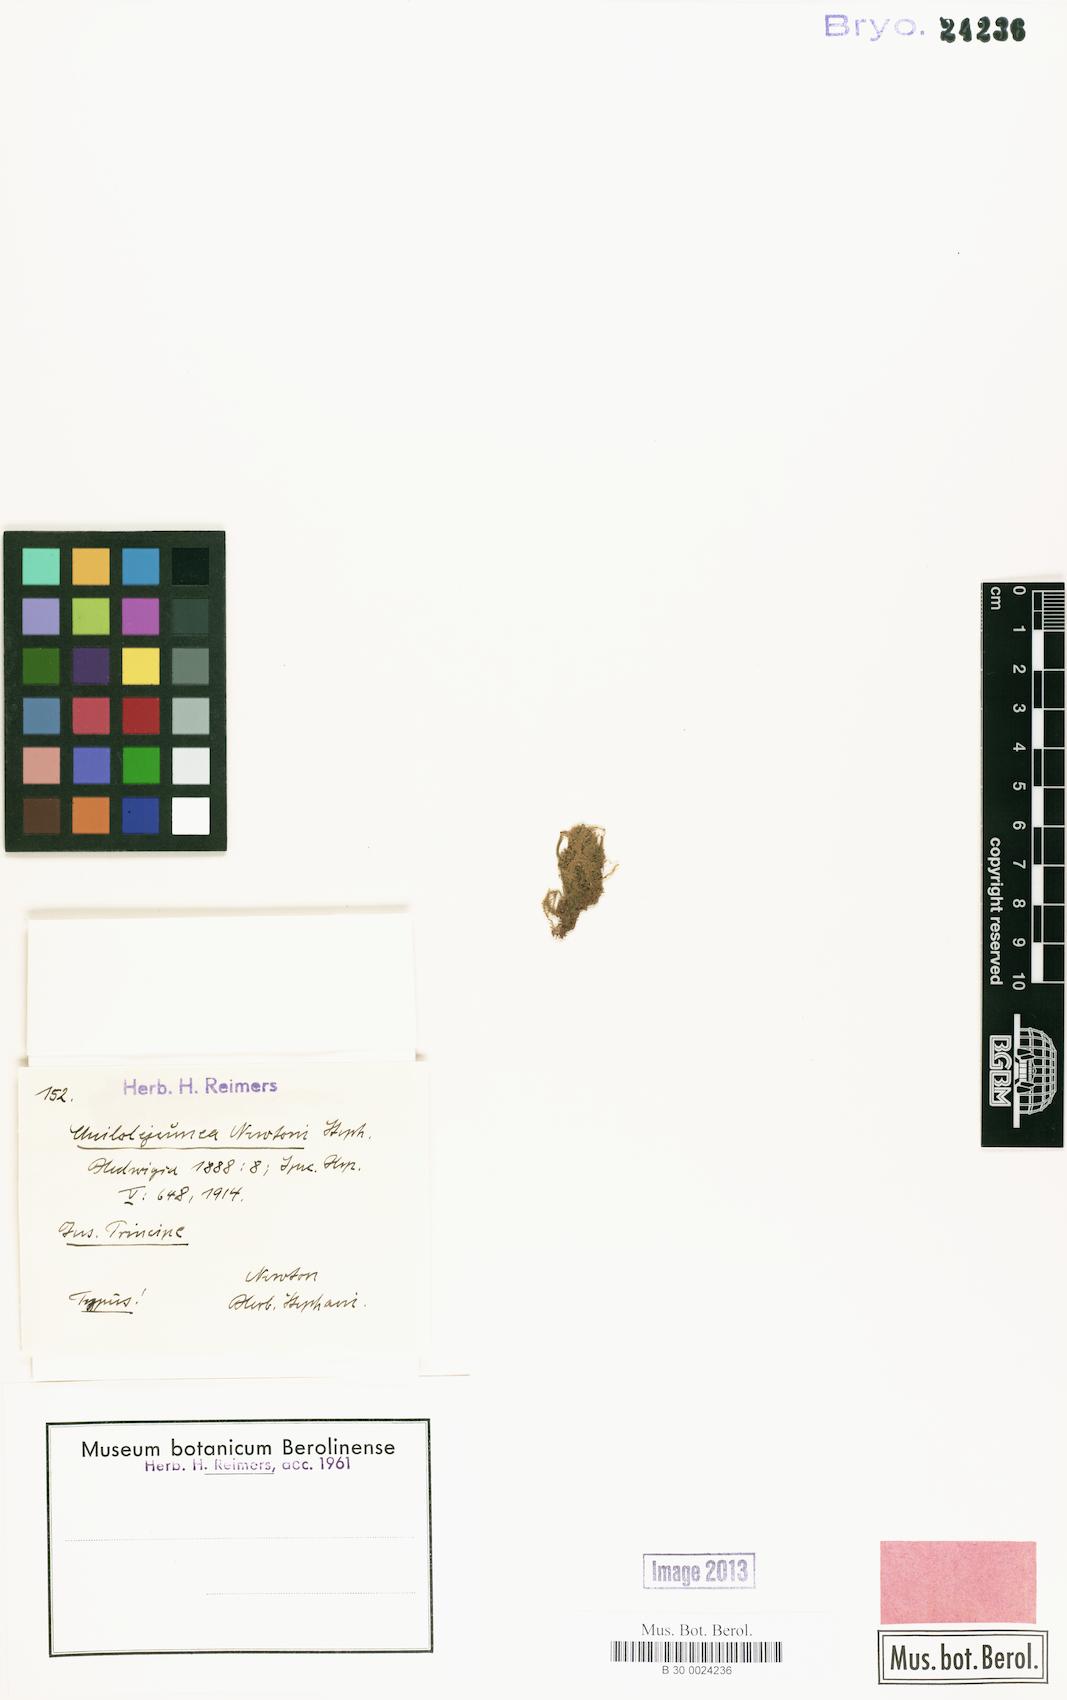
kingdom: Plantae
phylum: Marchantiophyta
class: Jungermanniopsida
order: Porellales
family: Lejeuneaceae
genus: Cheilolejeunea
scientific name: Cheilolejeunea intertexta
